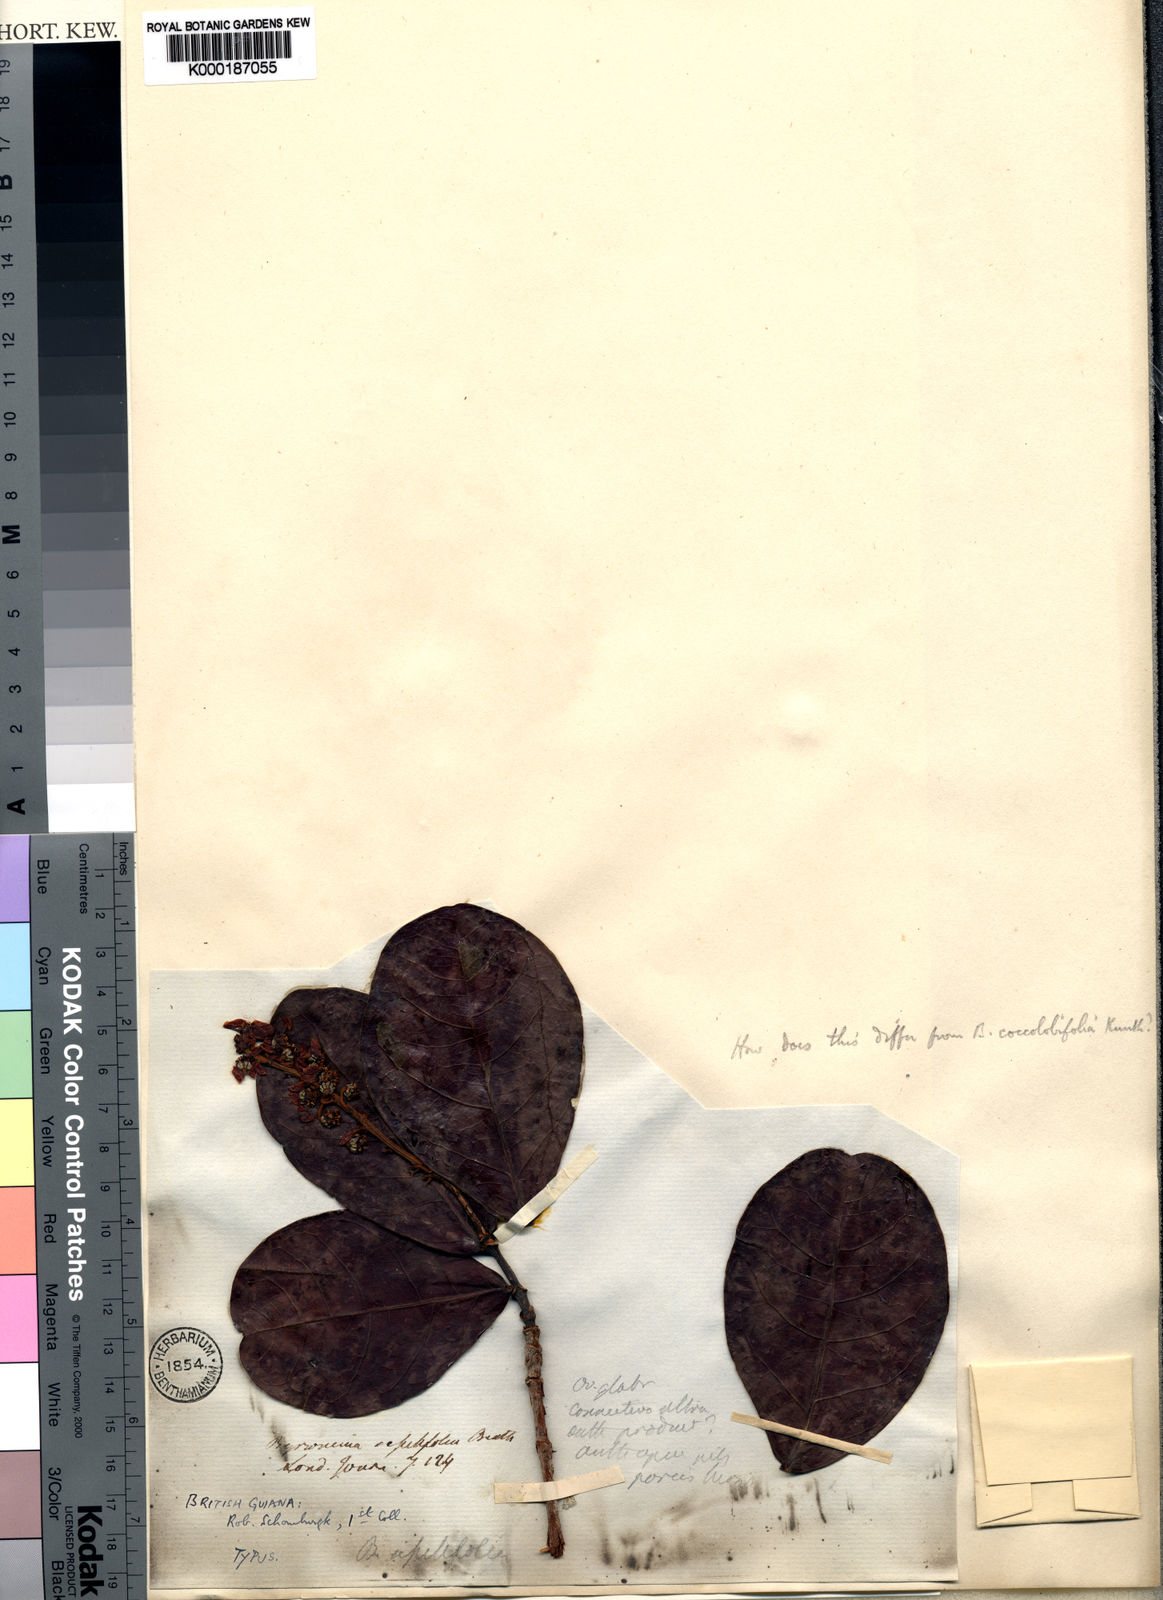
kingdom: Plantae
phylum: Tracheophyta
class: Magnoliopsida
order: Malpighiales
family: Malpighiaceae
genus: Byrsonima
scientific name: Byrsonima coccolobifolia
